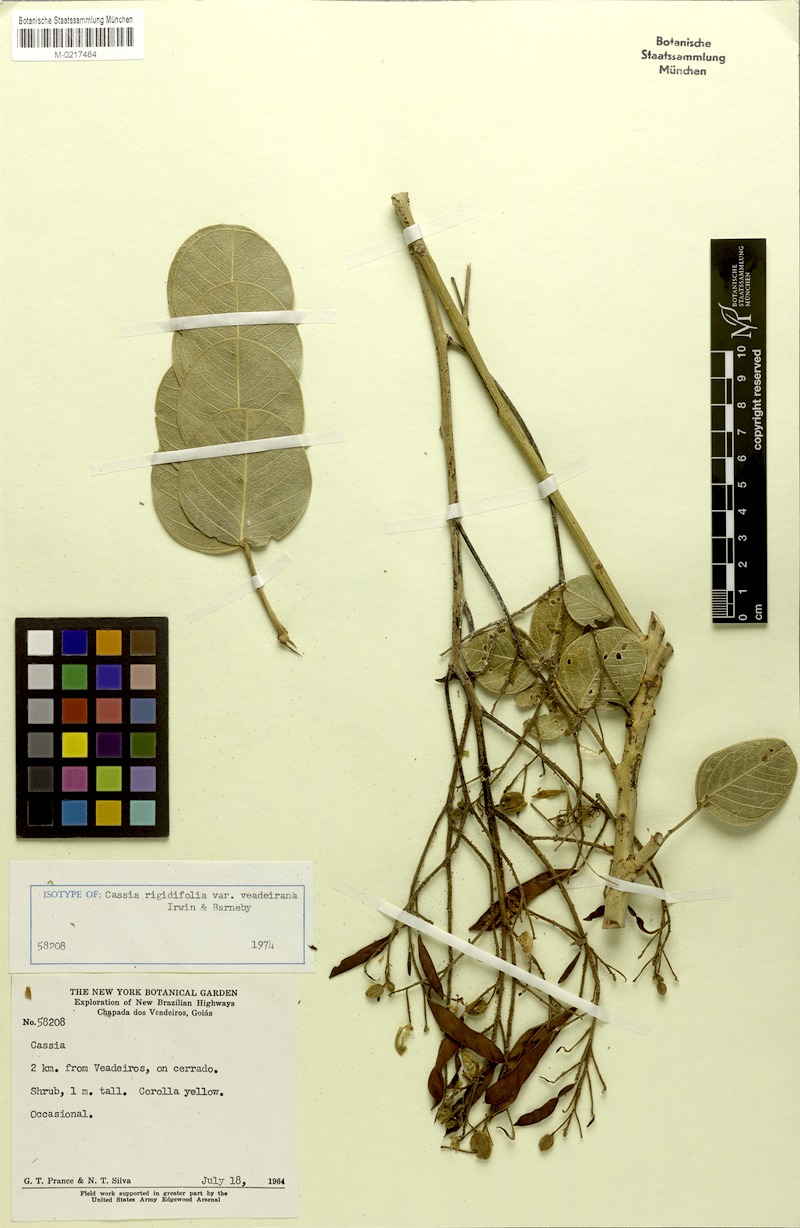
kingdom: Plantae
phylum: Tracheophyta
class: Magnoliopsida
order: Fabales
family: Fabaceae
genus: Chamaecrista
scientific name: Chamaecrista veadeirana
